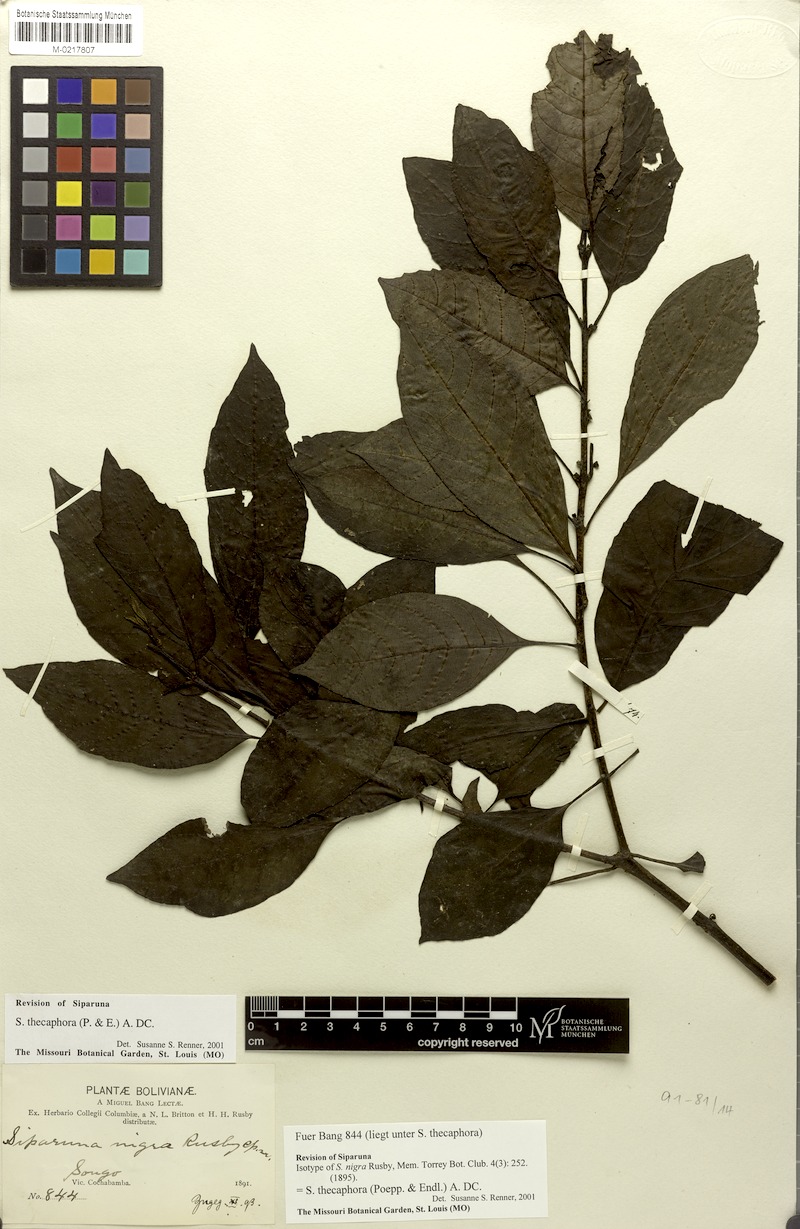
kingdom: Plantae
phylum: Tracheophyta
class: Magnoliopsida
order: Laurales
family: Siparunaceae
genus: Siparuna
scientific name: Siparuna thecaphora
